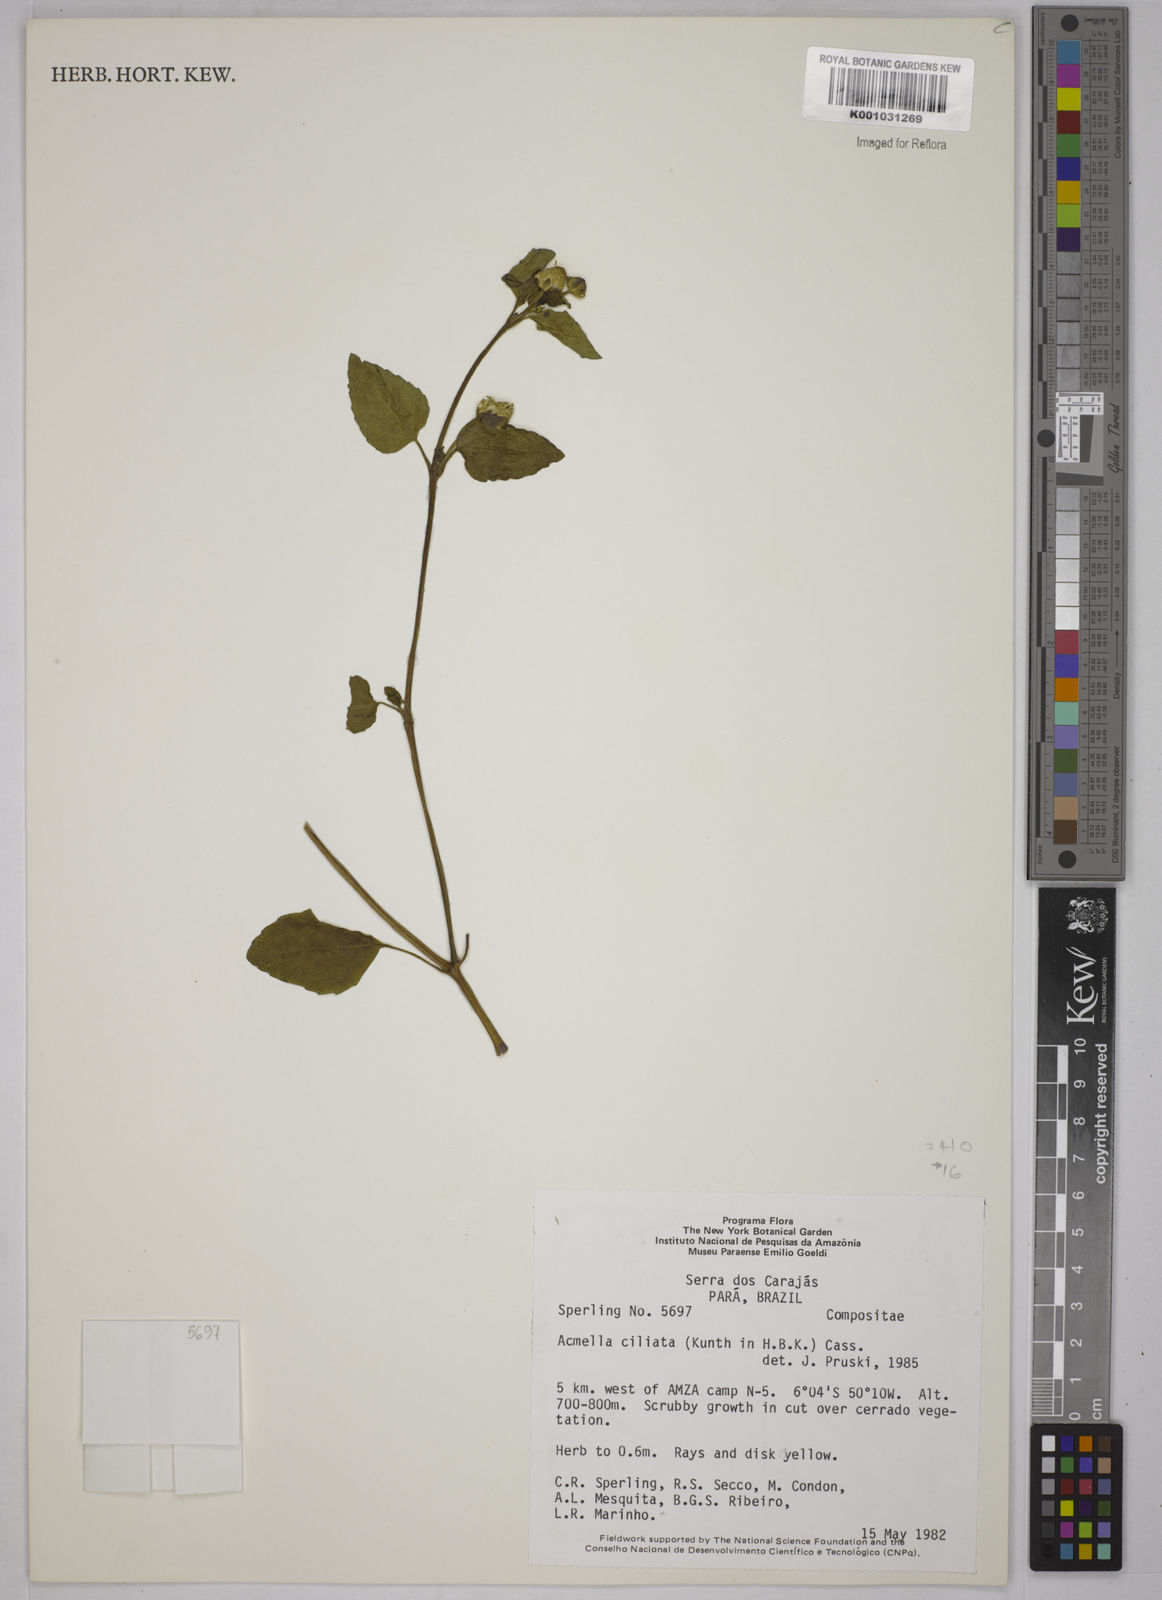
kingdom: Plantae
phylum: Tracheophyta
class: Magnoliopsida
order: Asterales
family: Asteraceae
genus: Acmella
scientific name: Acmella ciliata
